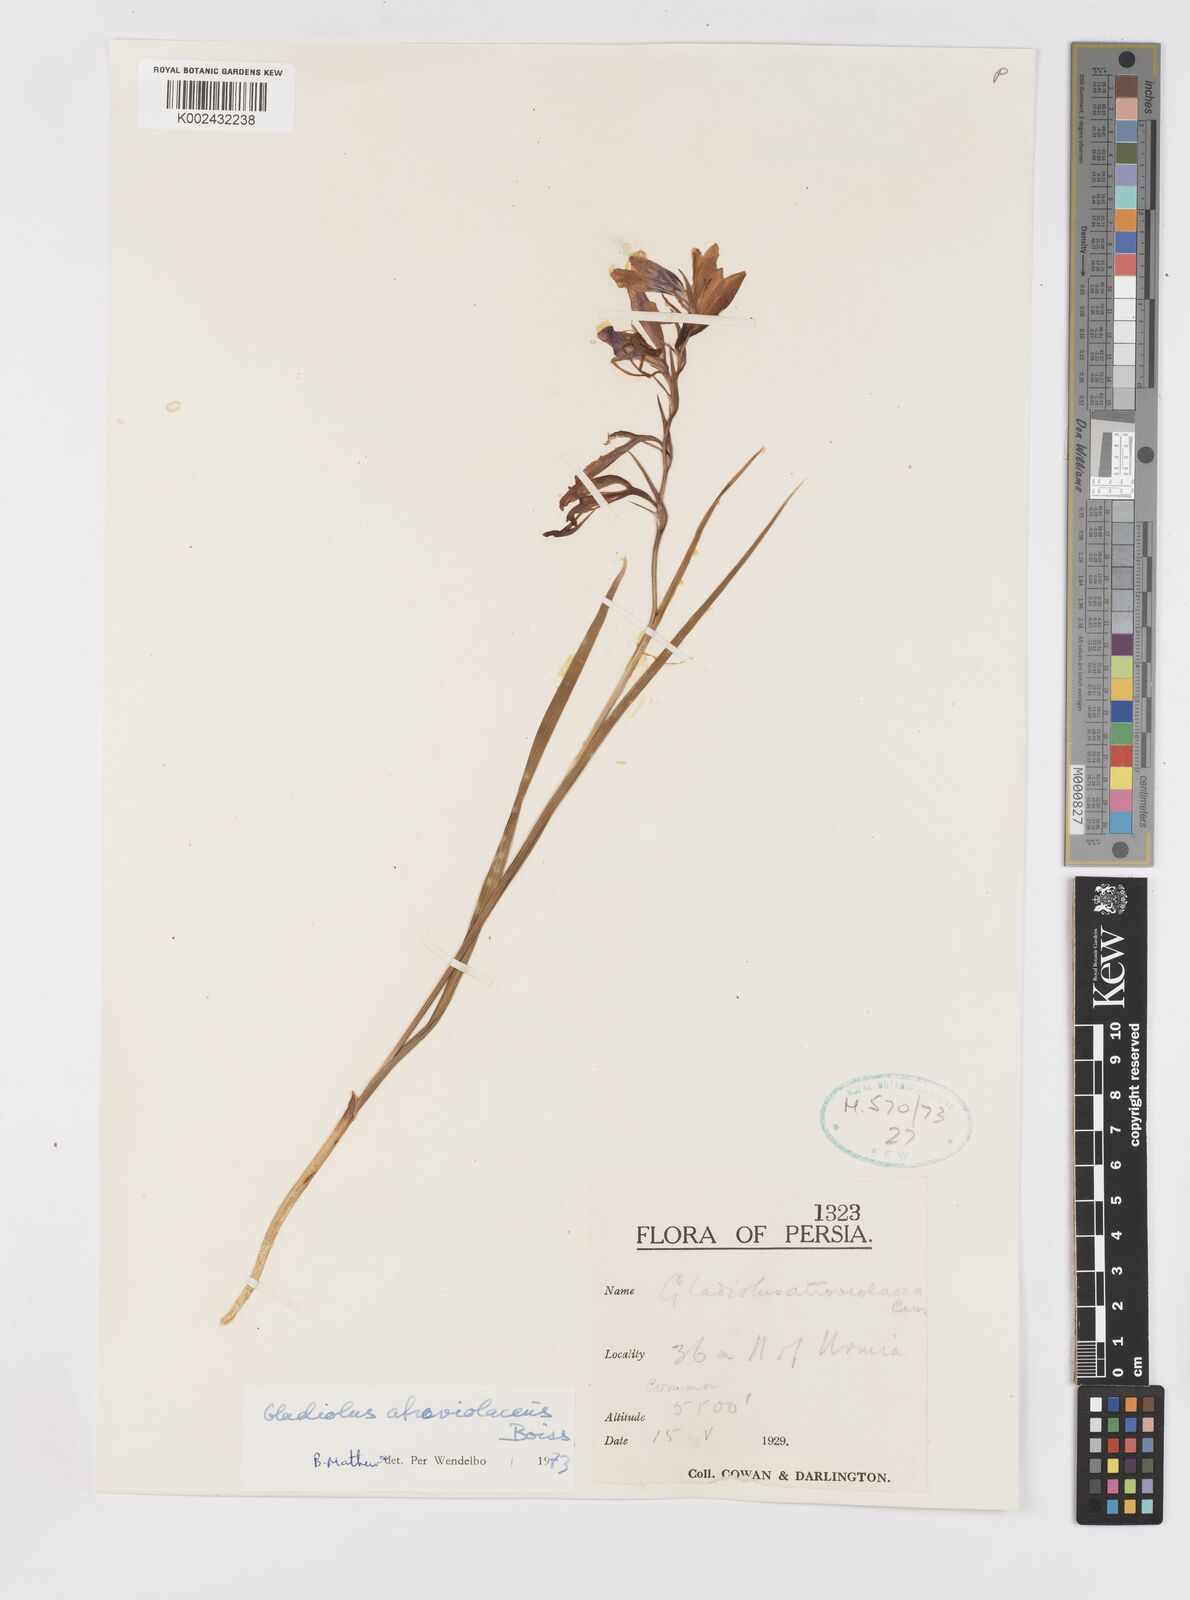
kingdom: Plantae
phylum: Tracheophyta
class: Liliopsida
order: Asparagales
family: Iridaceae
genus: Gladiolus
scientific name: Gladiolus atroviolaceus
